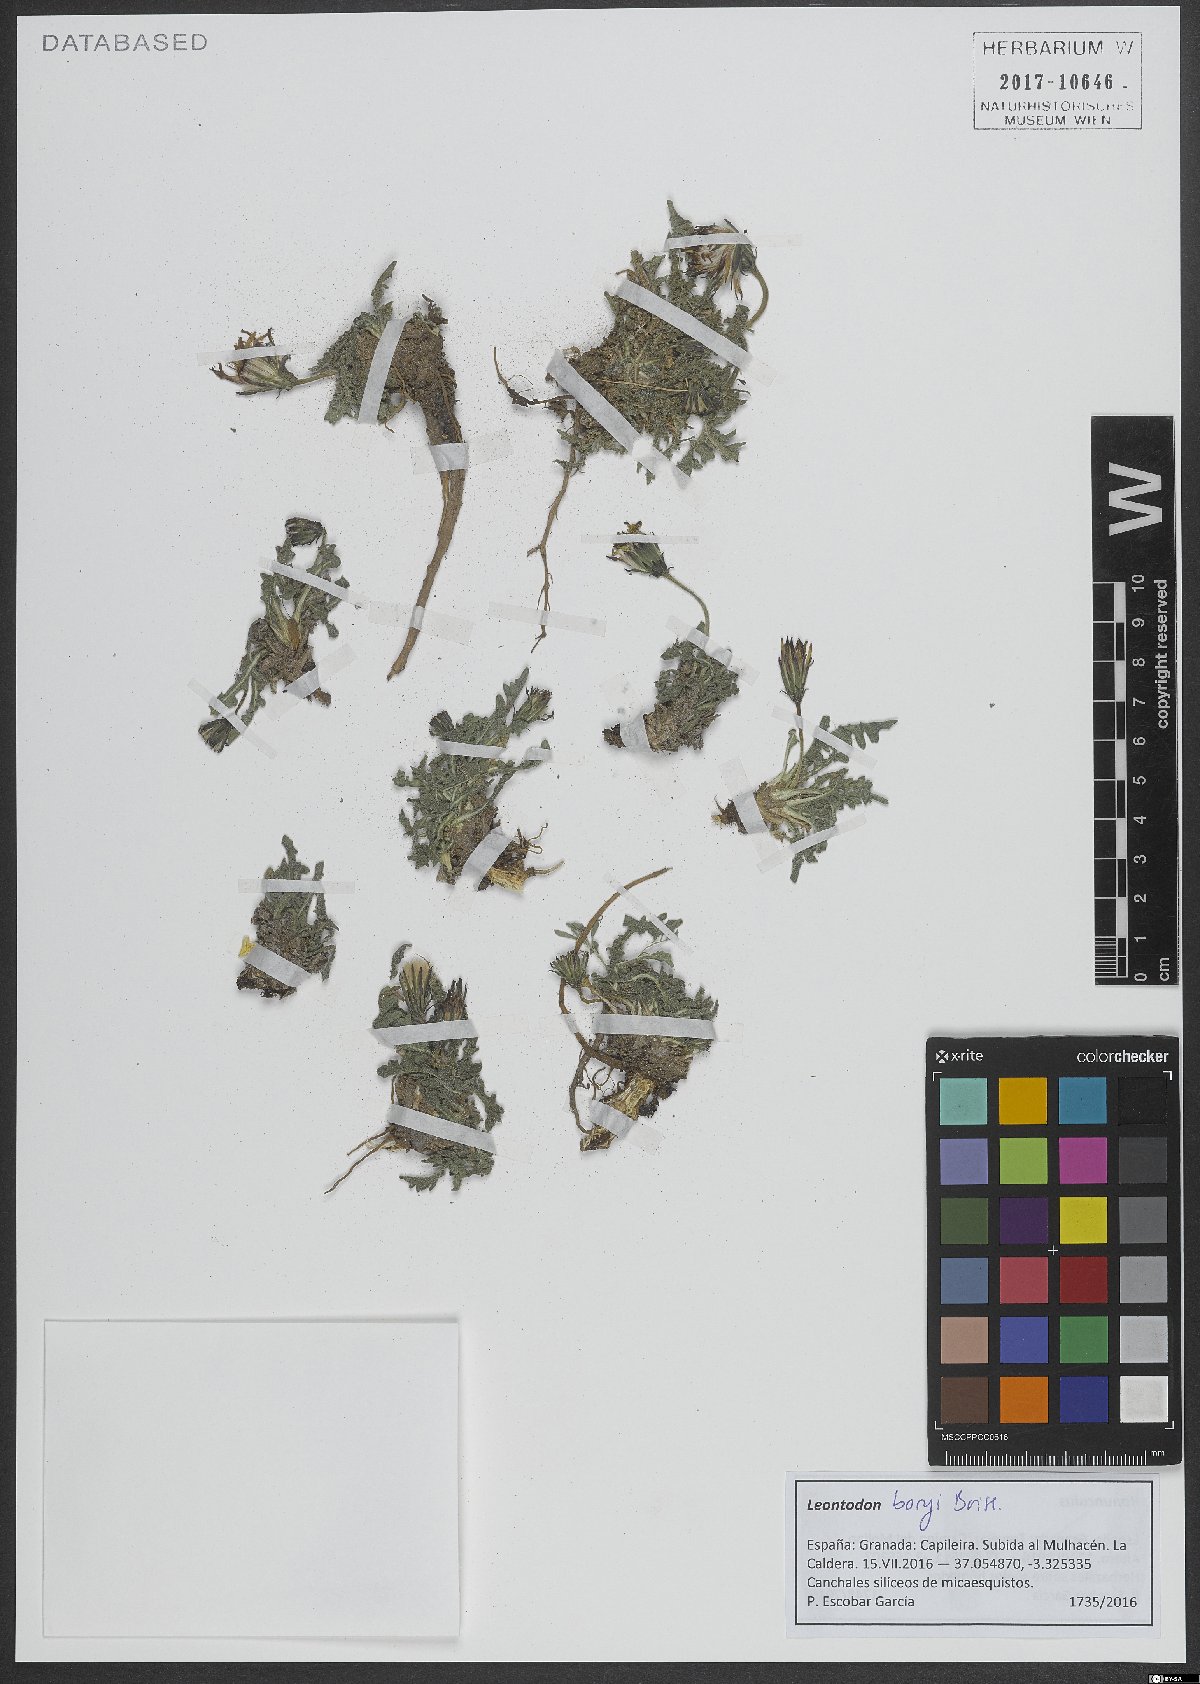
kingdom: Plantae
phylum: Tracheophyta
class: Magnoliopsida
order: Asterales
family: Asteraceae
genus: Leontodon
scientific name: Leontodon boryi
